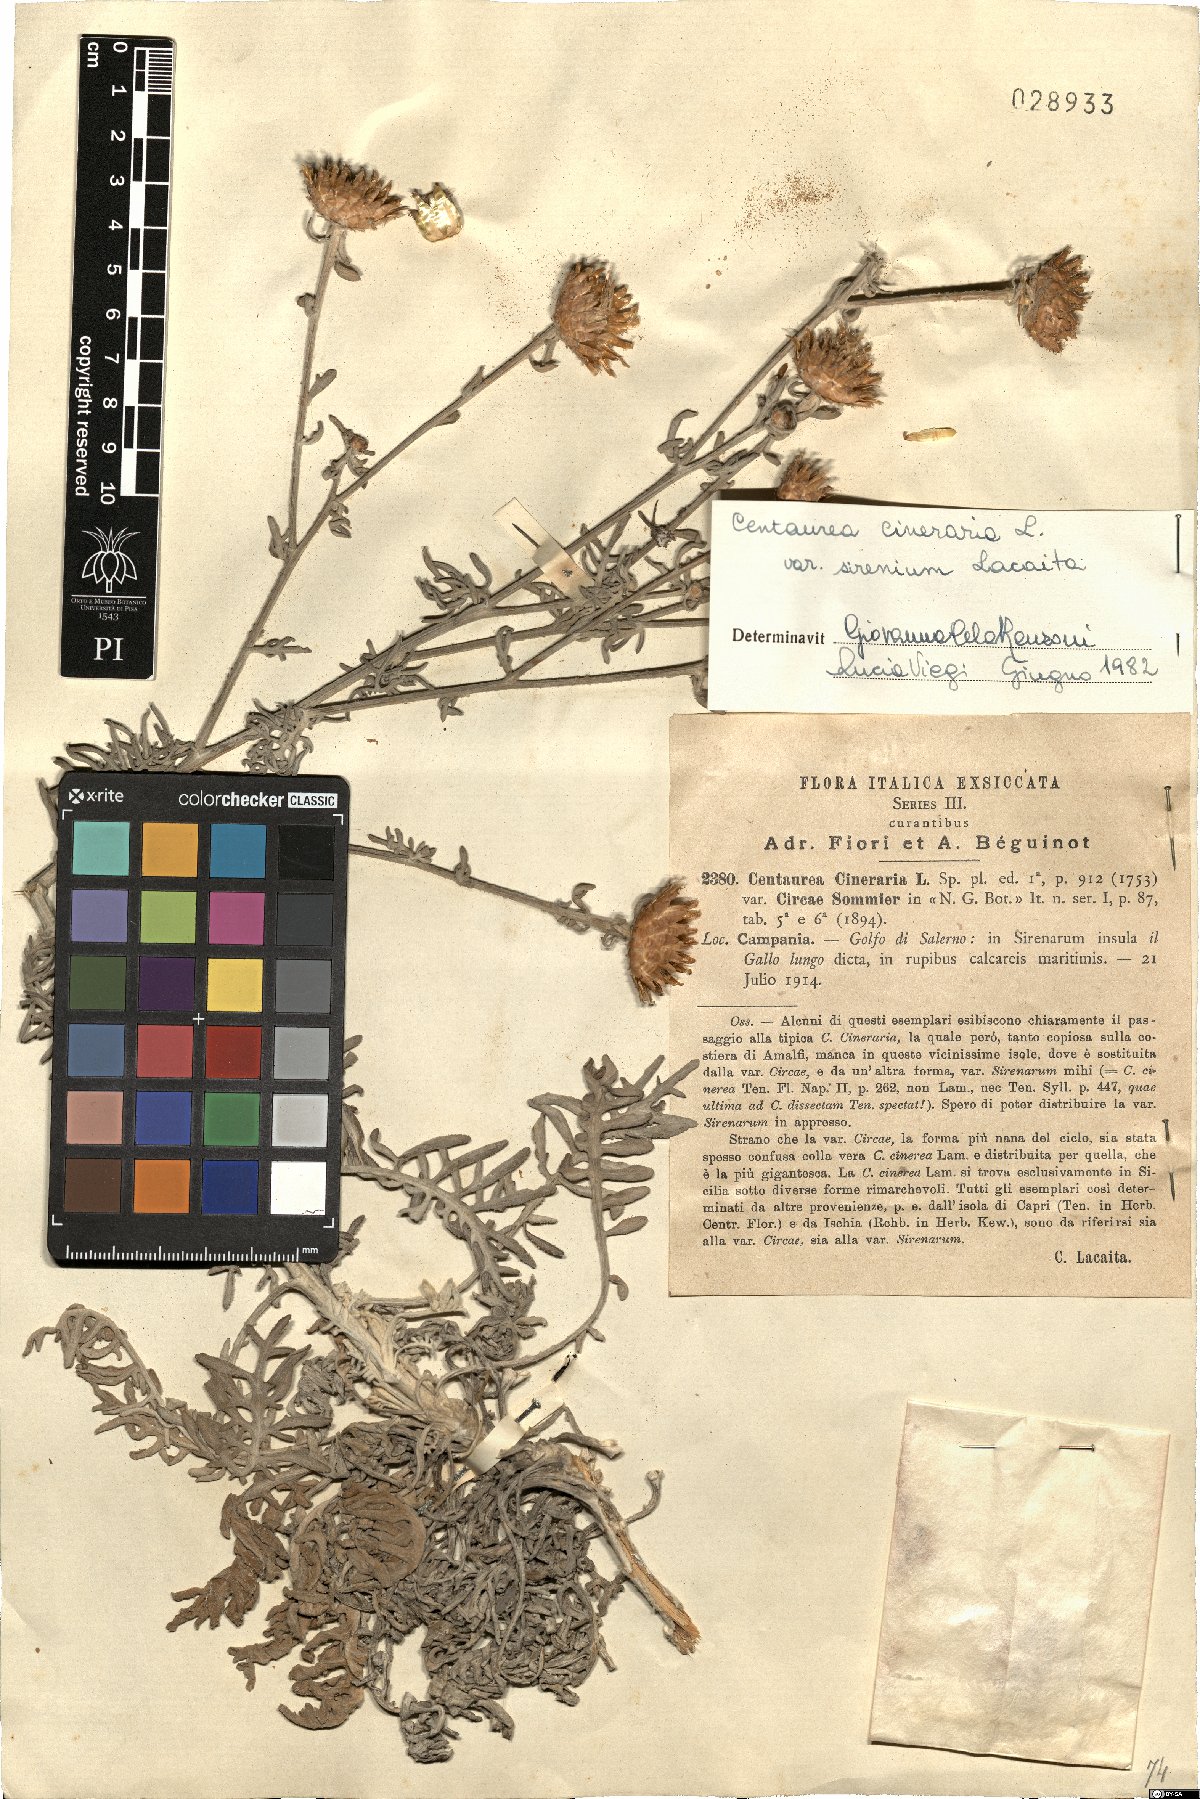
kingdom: Plantae
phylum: Tracheophyta
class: Magnoliopsida
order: Asterales
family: Asteraceae
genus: Centaurea
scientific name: Centaurea cineraria
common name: Dusty miller
